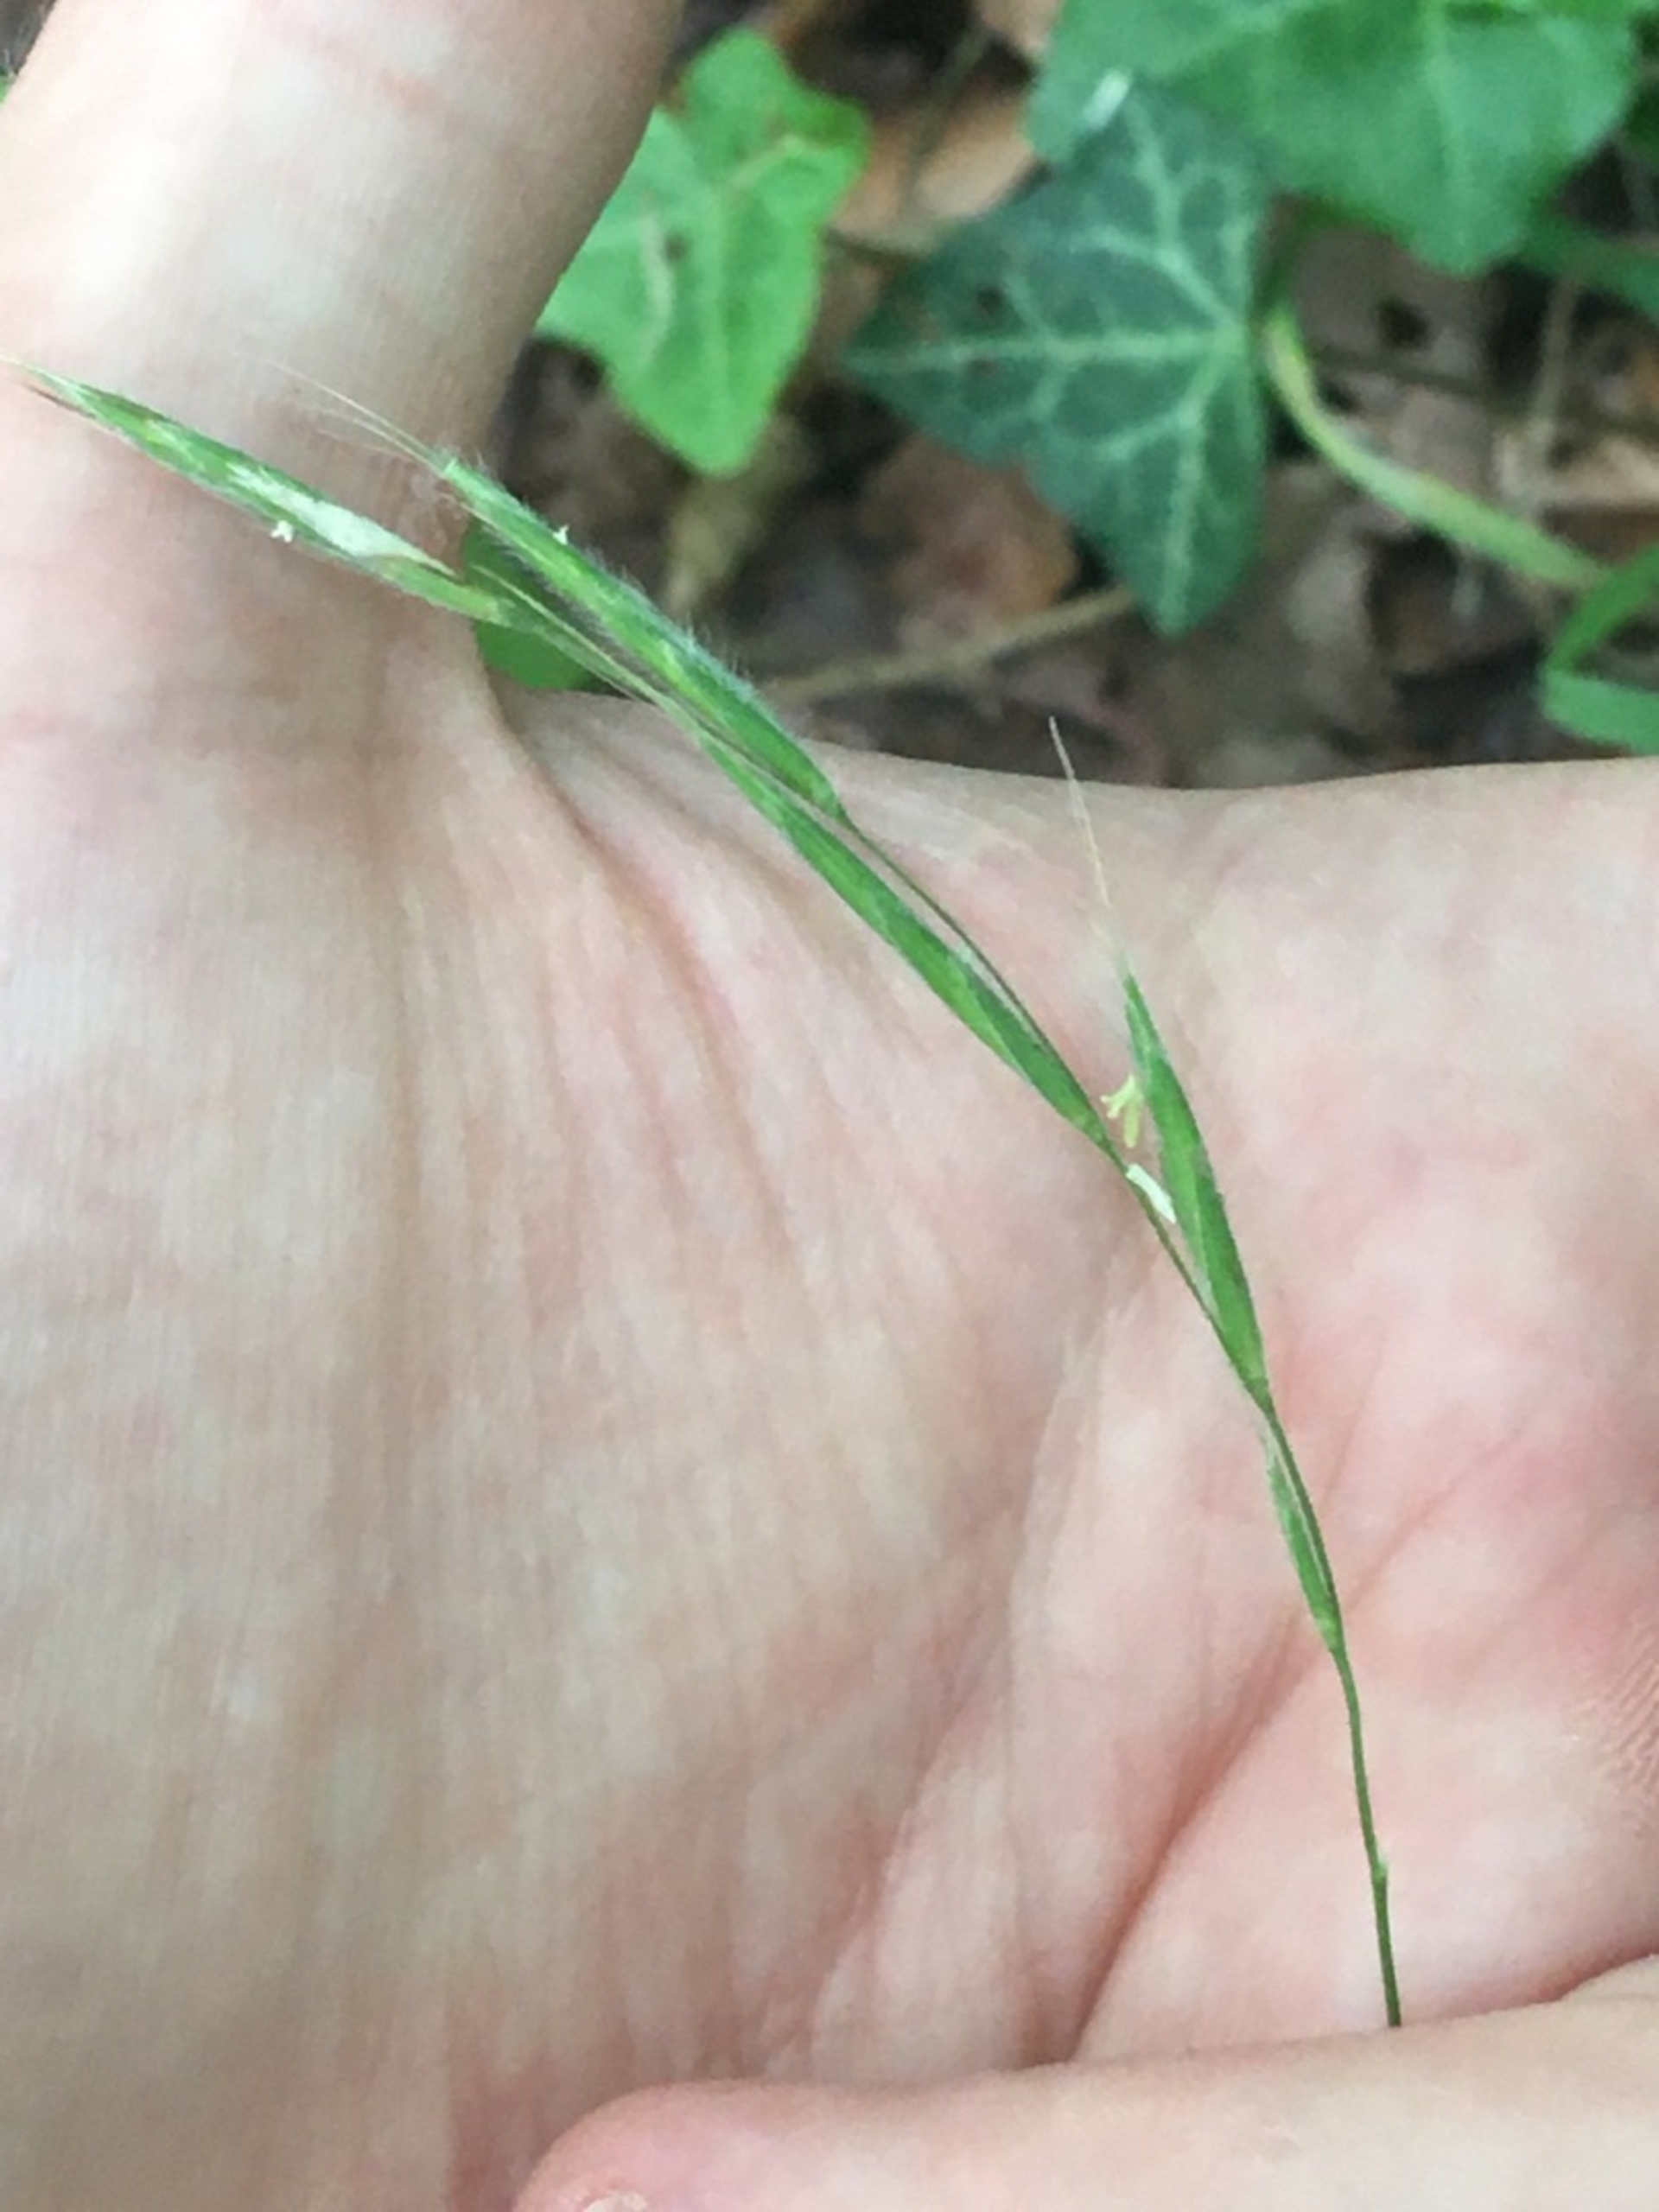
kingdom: Plantae
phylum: Tracheophyta
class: Liliopsida
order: Poales
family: Poaceae
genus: Brachypodium
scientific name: Brachypodium sylvaticum
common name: Skov-stilkaks
